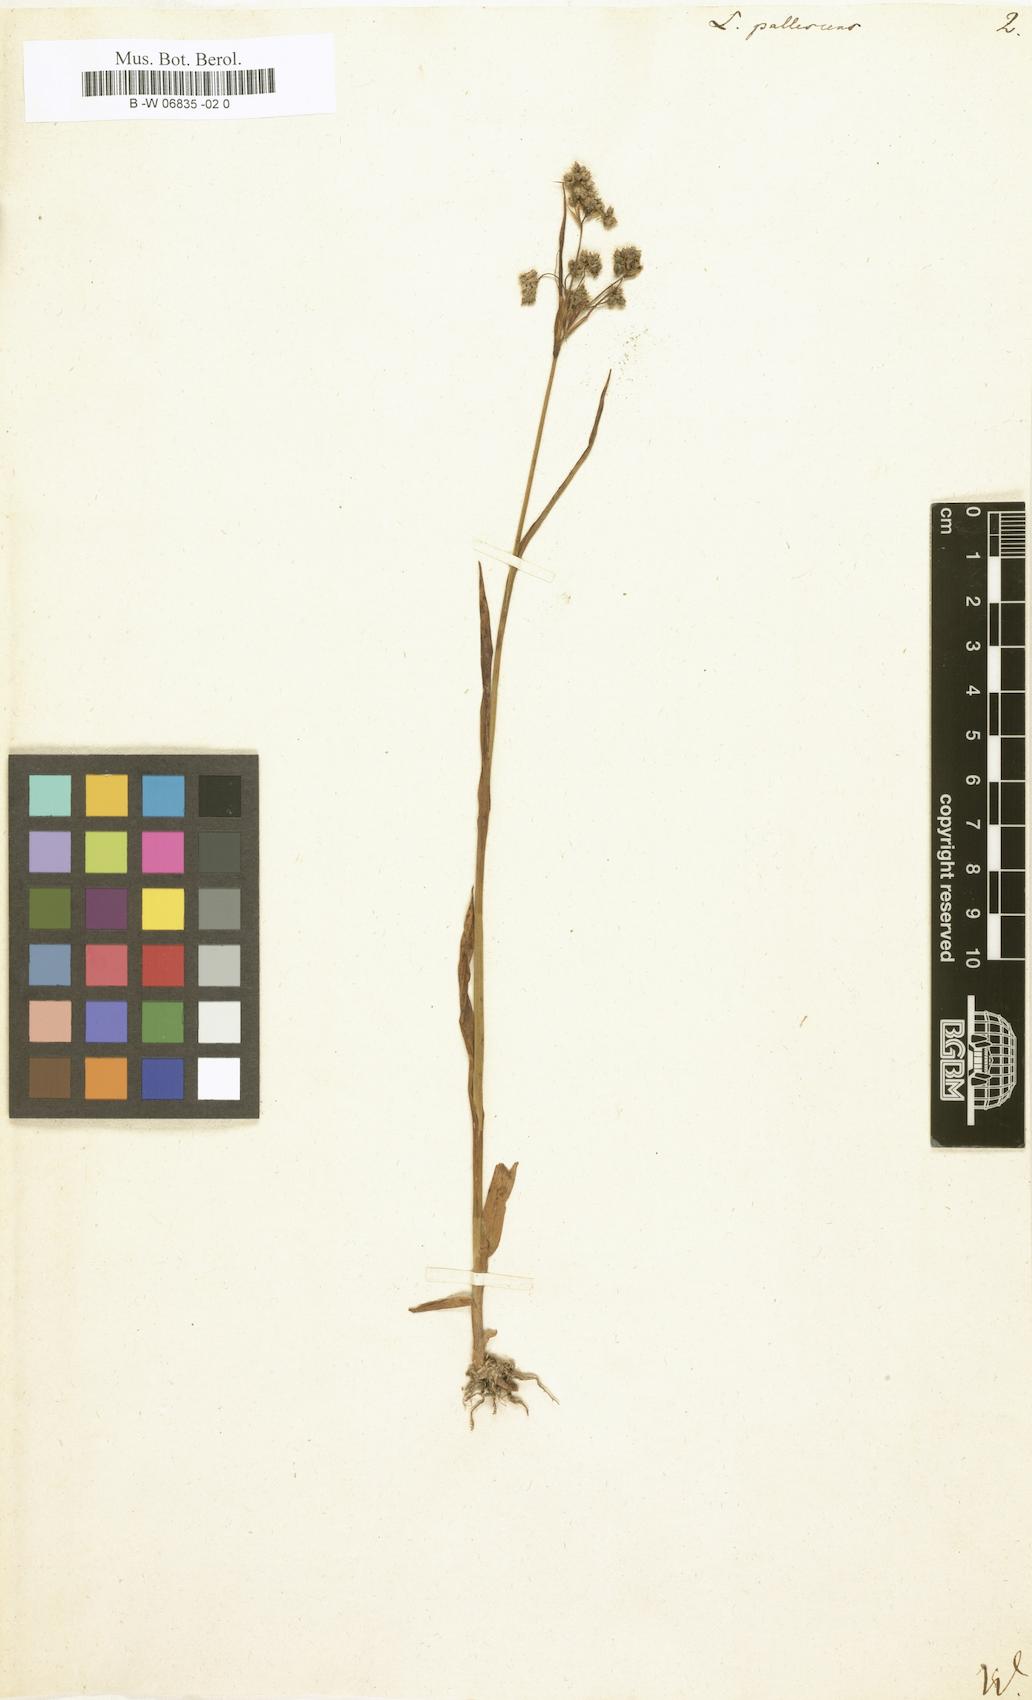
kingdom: Plantae
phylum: Tracheophyta
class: Liliopsida
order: Poales
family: Juncaceae
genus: Luzula
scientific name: Luzula pallescens
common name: Fen wood-rush
